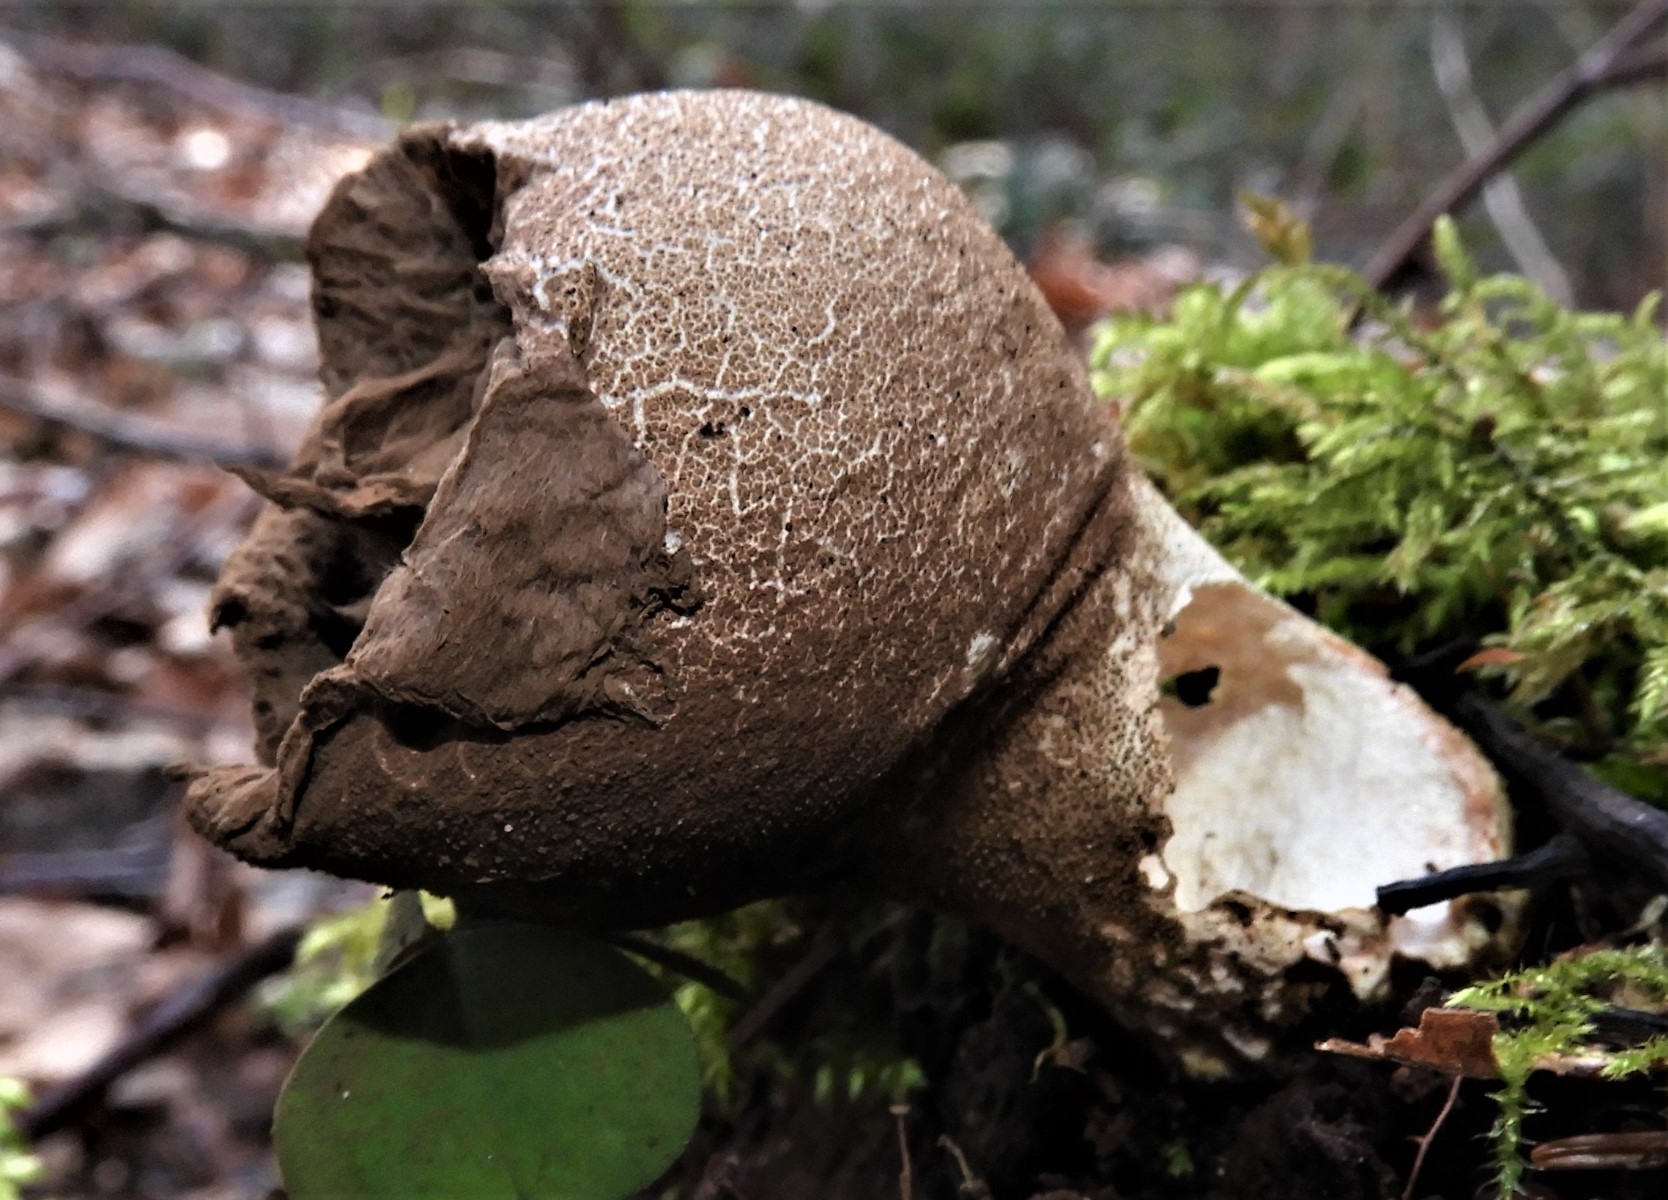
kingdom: Fungi
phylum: Basidiomycota
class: Agaricomycetes
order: Agaricales
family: Lycoperdaceae
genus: Apioperdon
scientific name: Apioperdon pyriforme
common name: pære-støvbold
